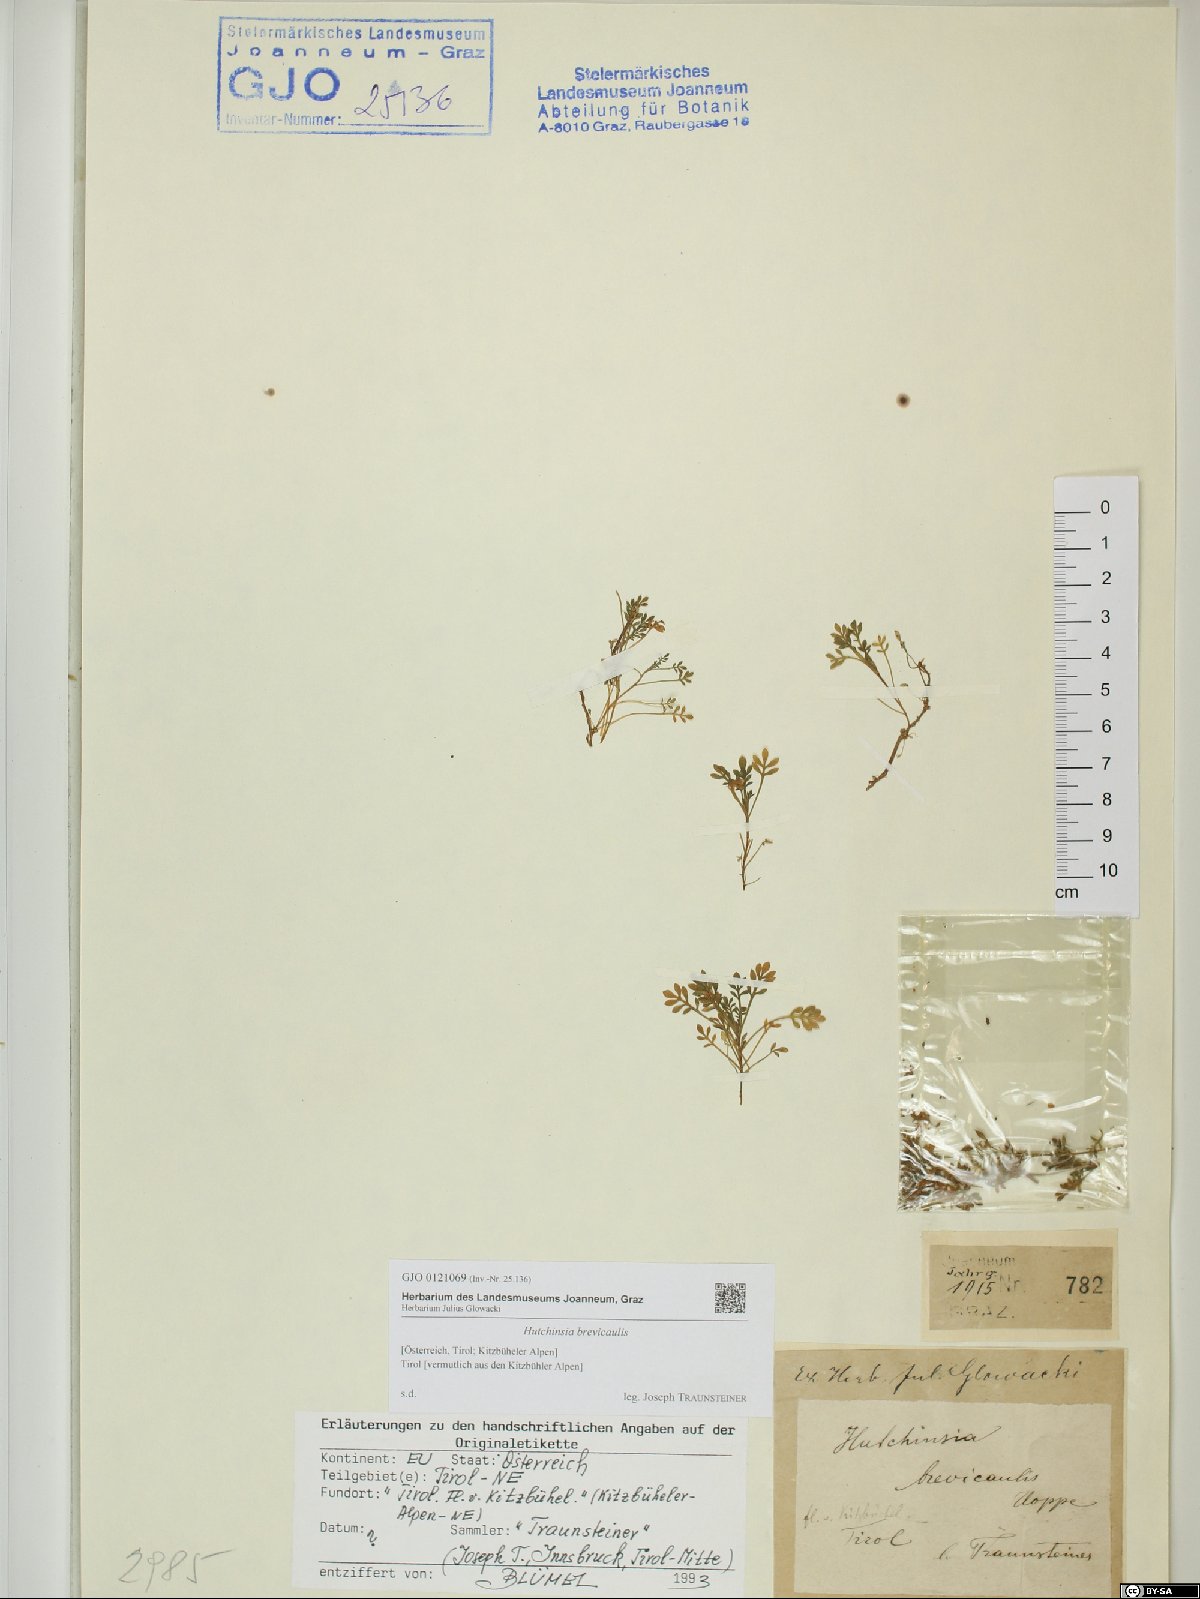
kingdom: Plantae
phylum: Tracheophyta
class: Magnoliopsida
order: Brassicales
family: Brassicaceae
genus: Hornungia
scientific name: Hornungia alpina
